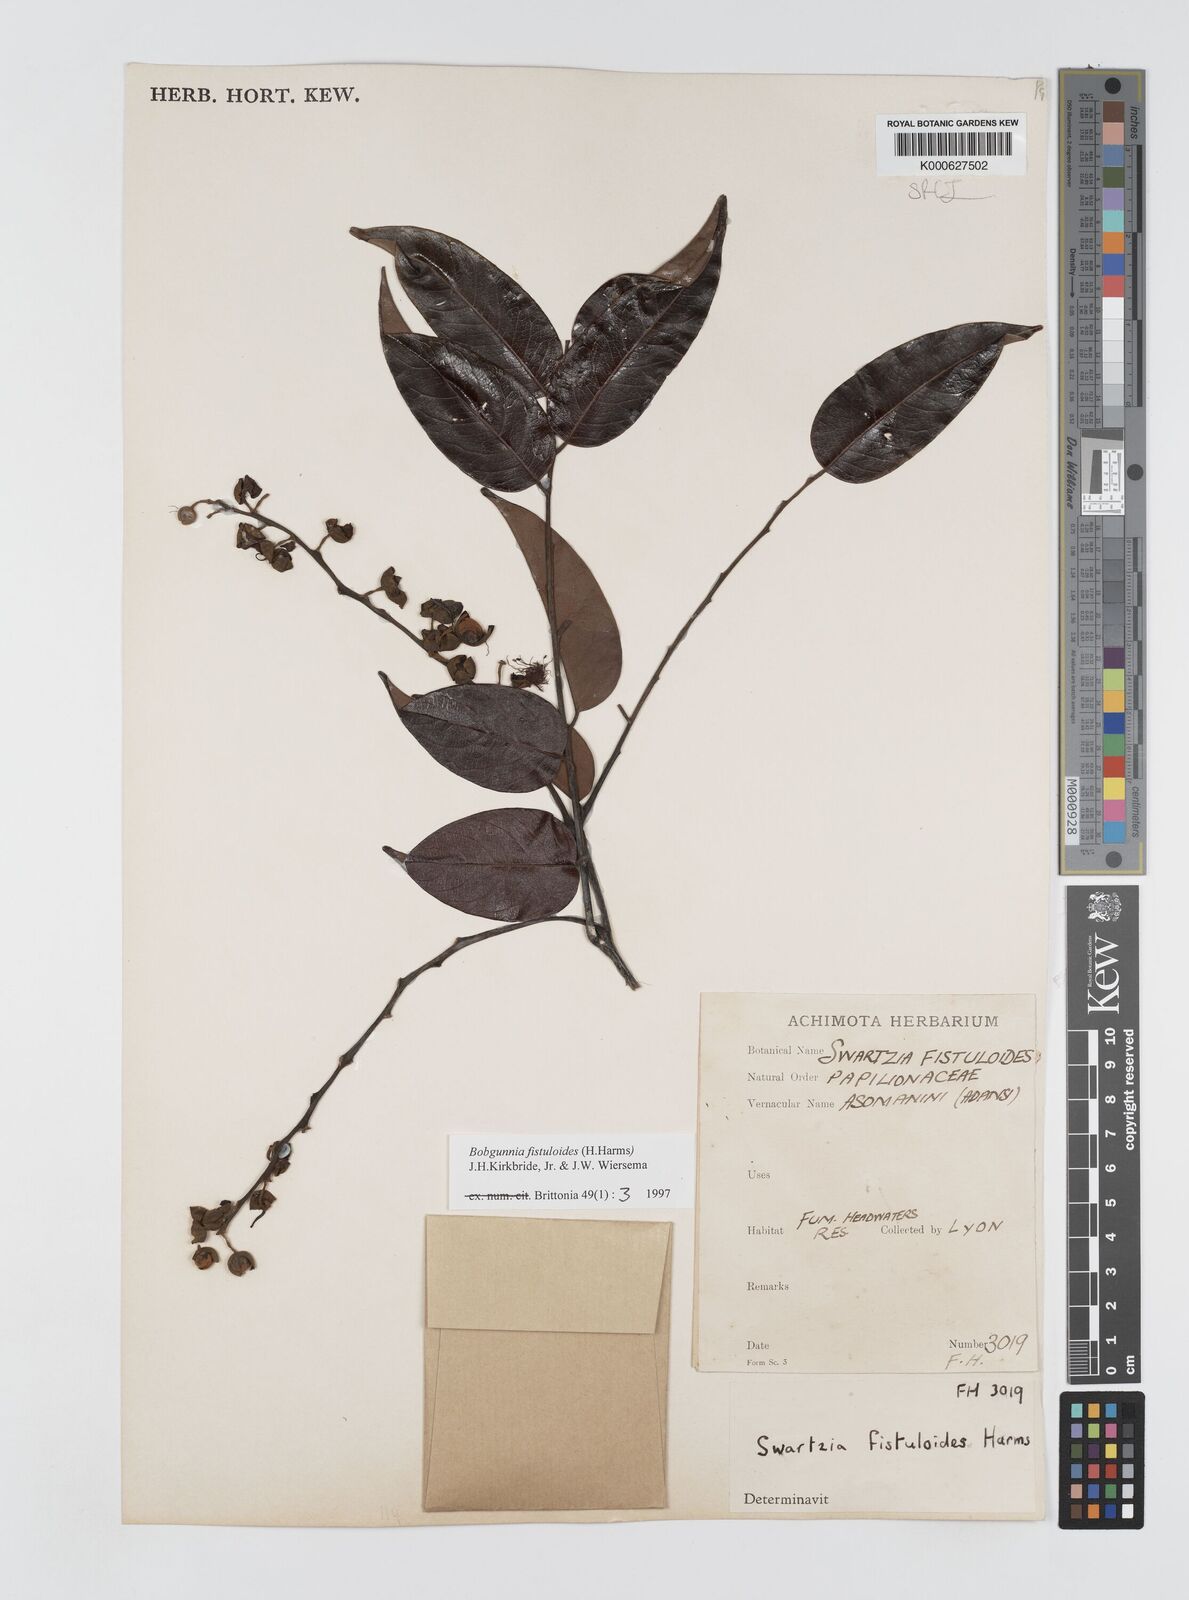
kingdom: Plantae
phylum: Tracheophyta
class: Magnoliopsida
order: Fabales
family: Fabaceae
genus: Bobgunnia
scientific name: Bobgunnia fistuloides
